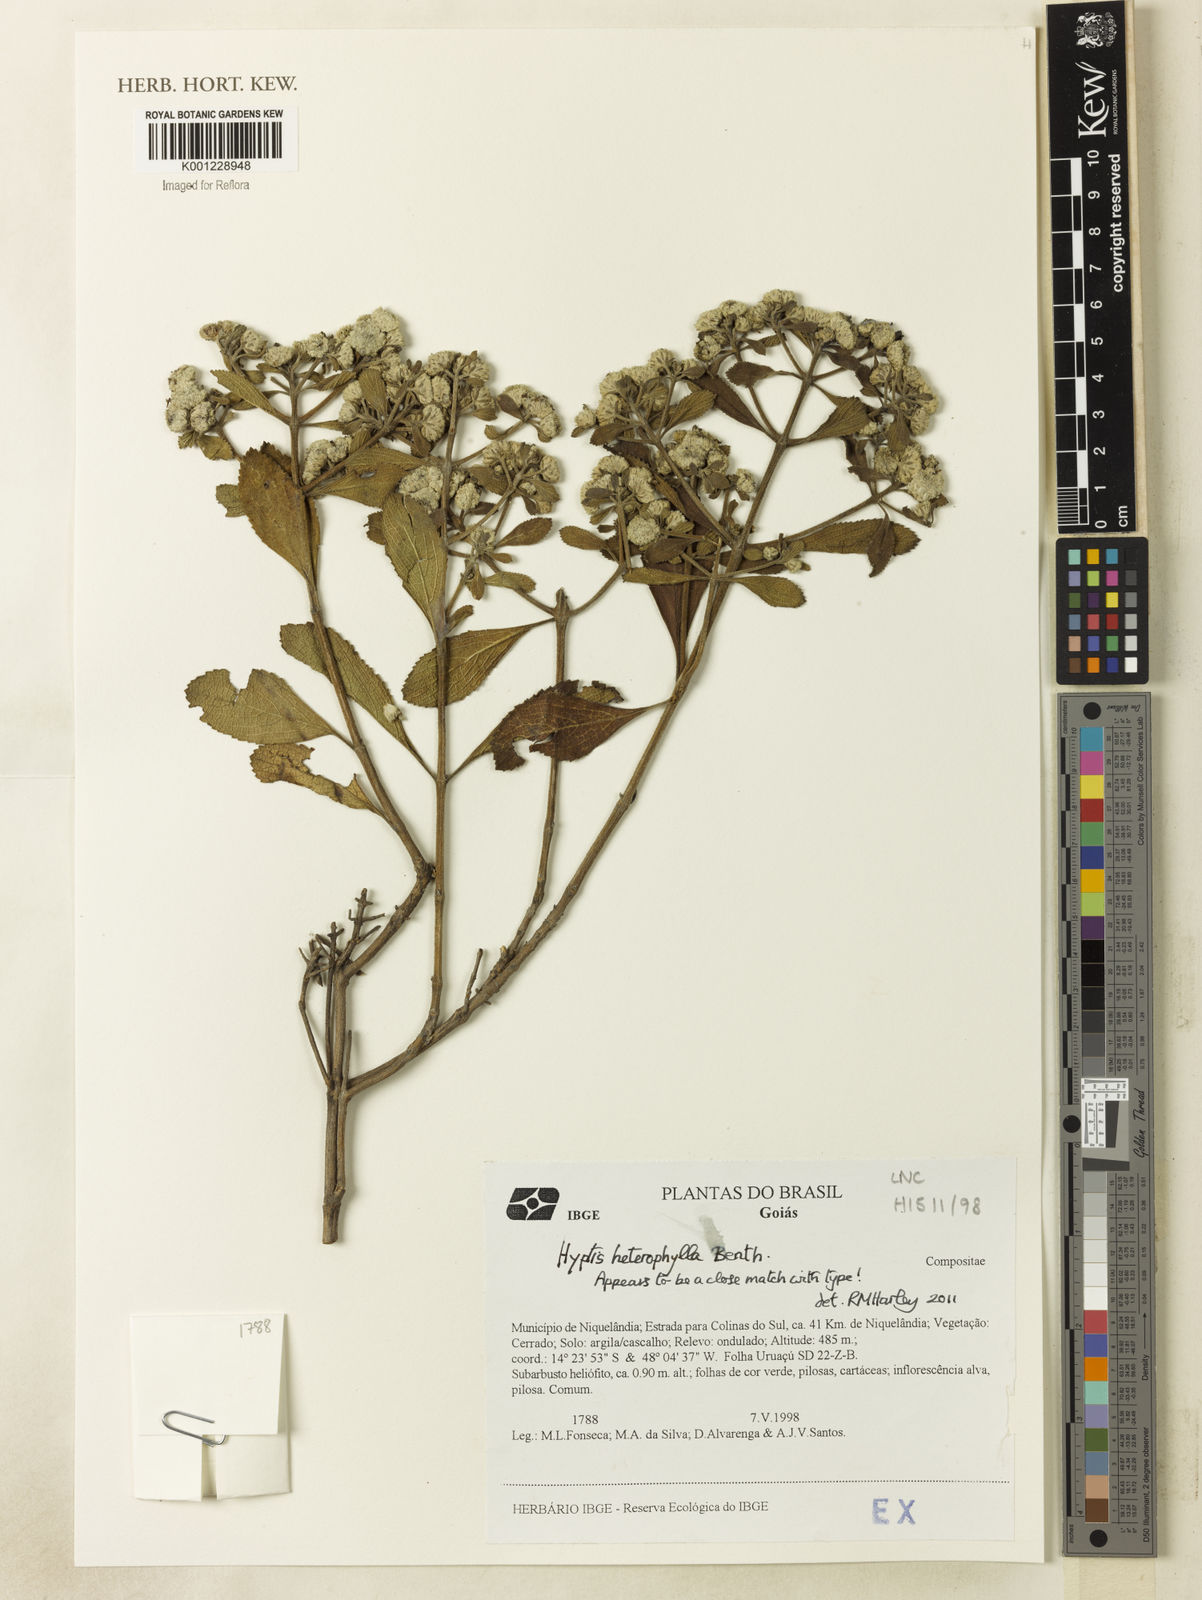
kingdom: Plantae
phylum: Tracheophyta
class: Magnoliopsida
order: Lamiales
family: Lamiaceae
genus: Hyptis
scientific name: Hyptis heterophylla
